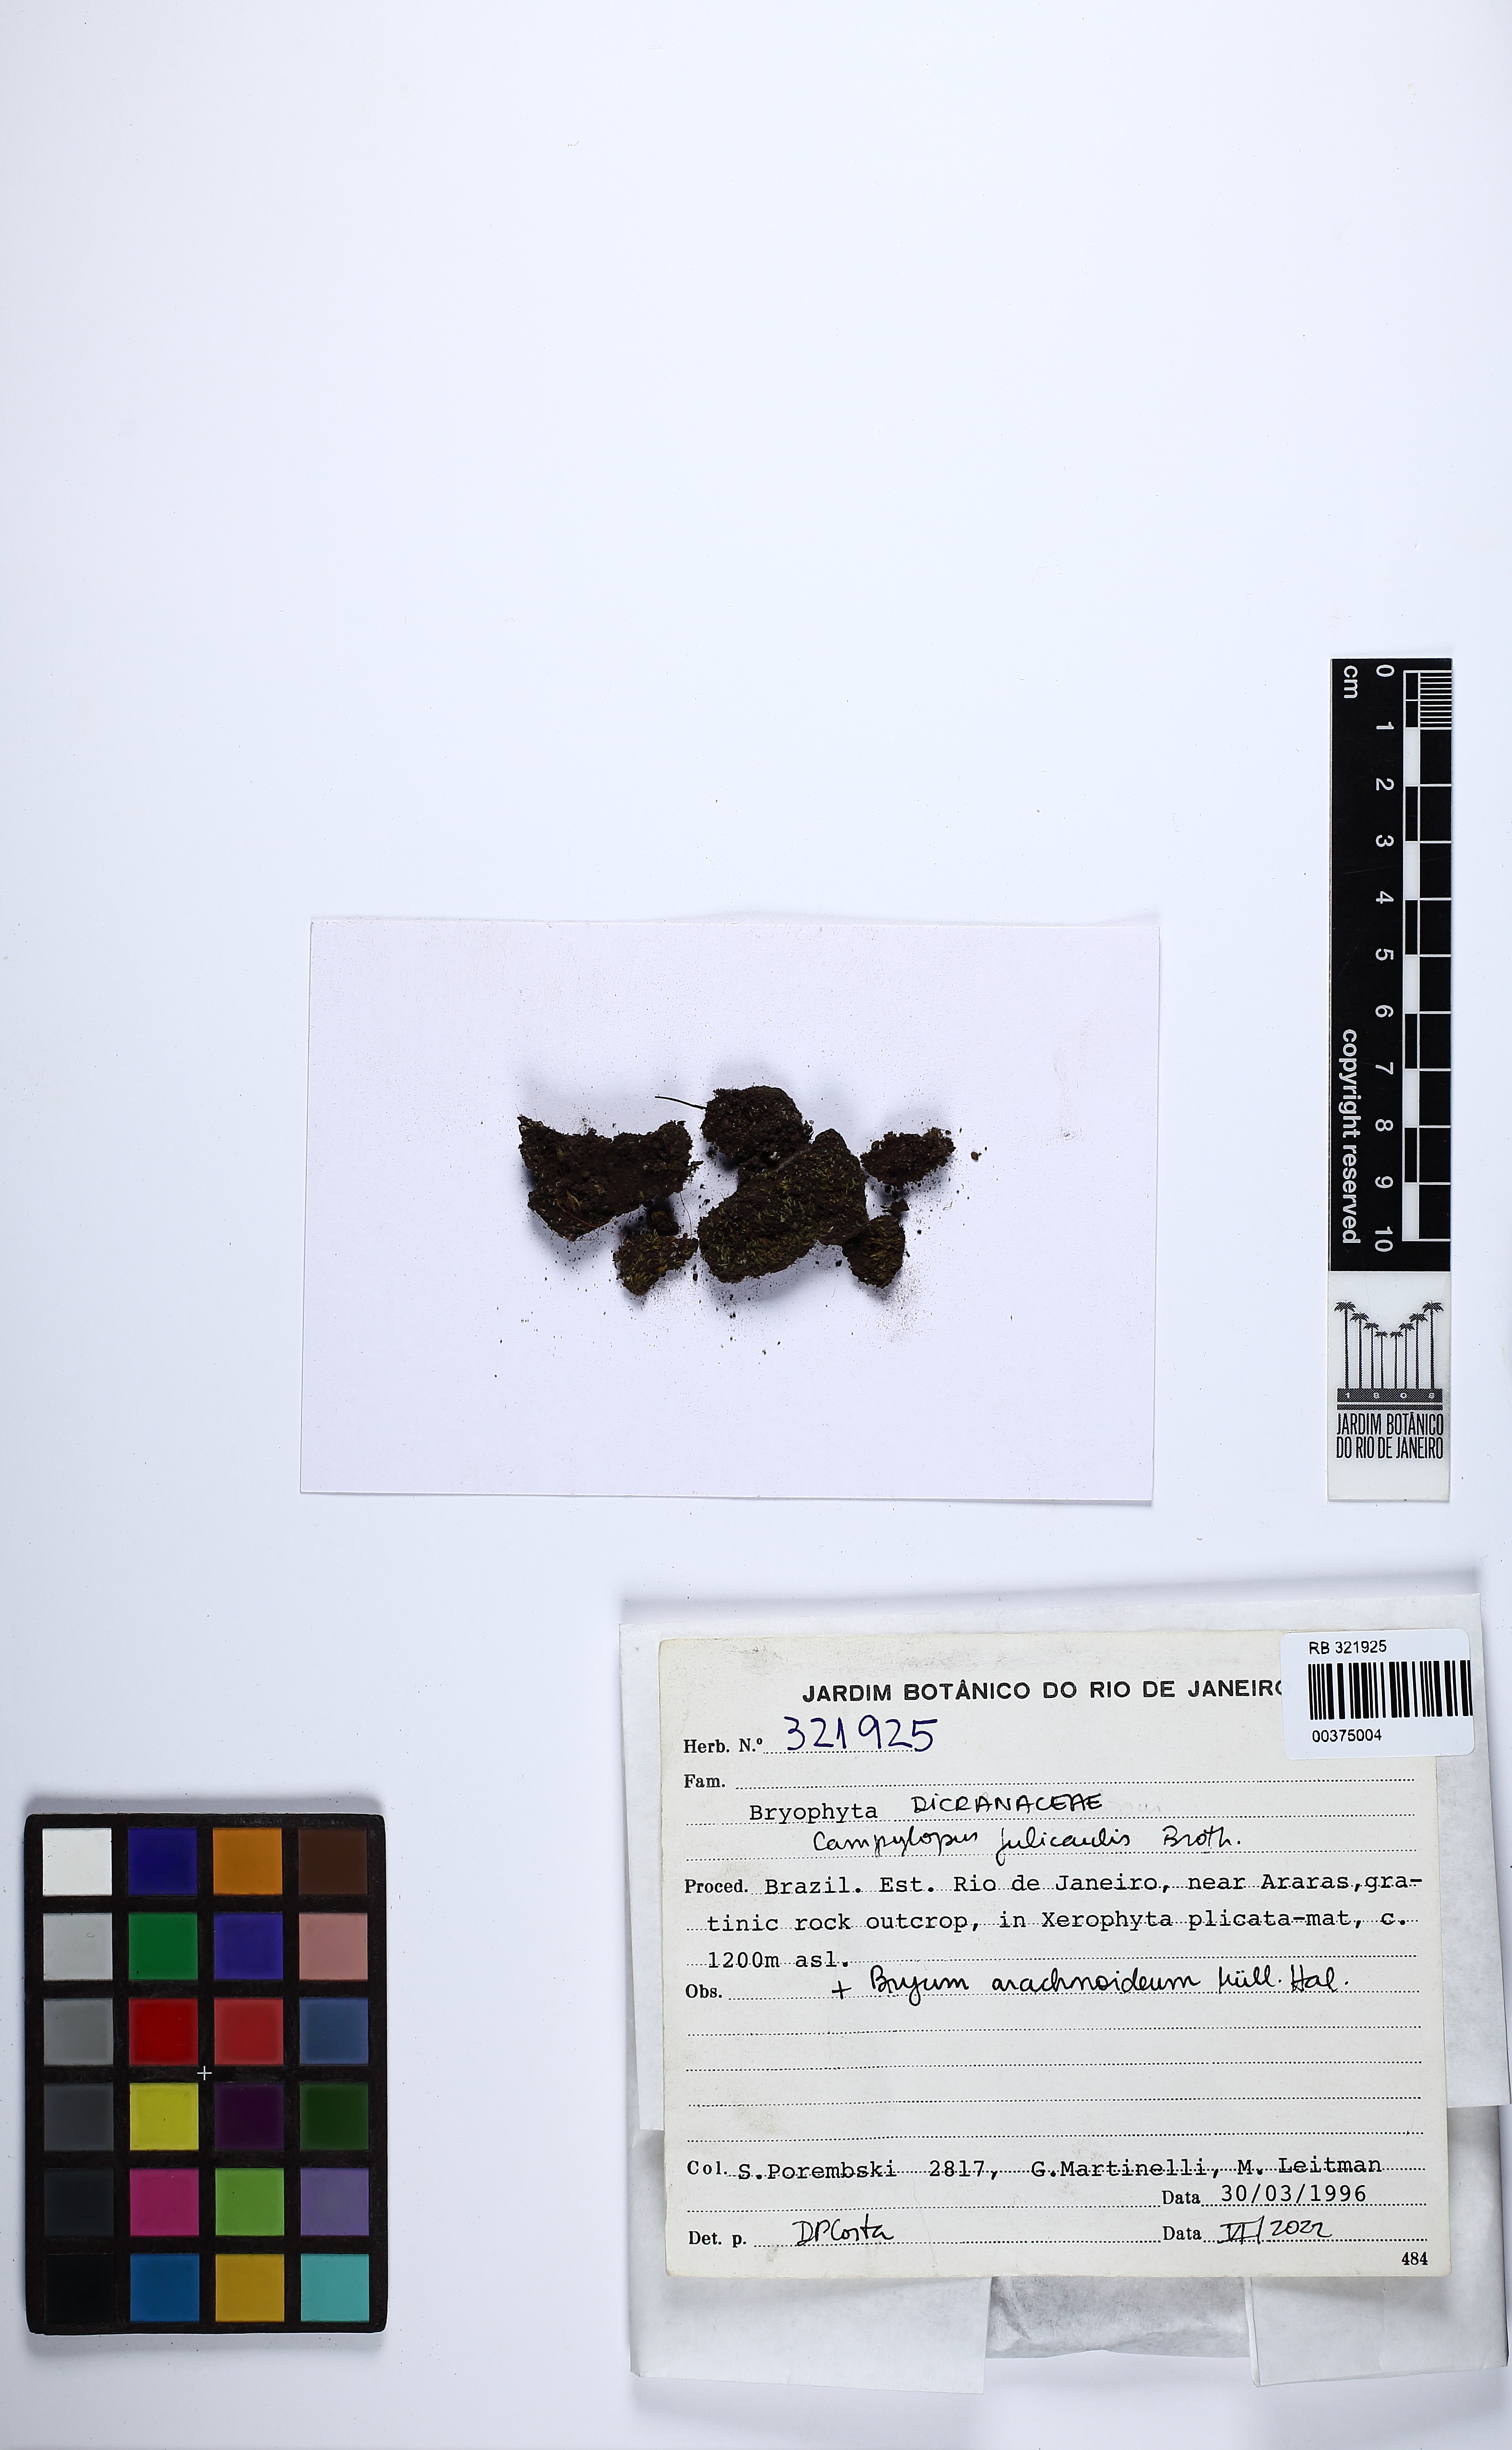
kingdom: Plantae
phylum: Bryophyta
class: Bryopsida
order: Dicranales
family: Leucobryaceae
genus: Campylopus
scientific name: Campylopus julicaulis
